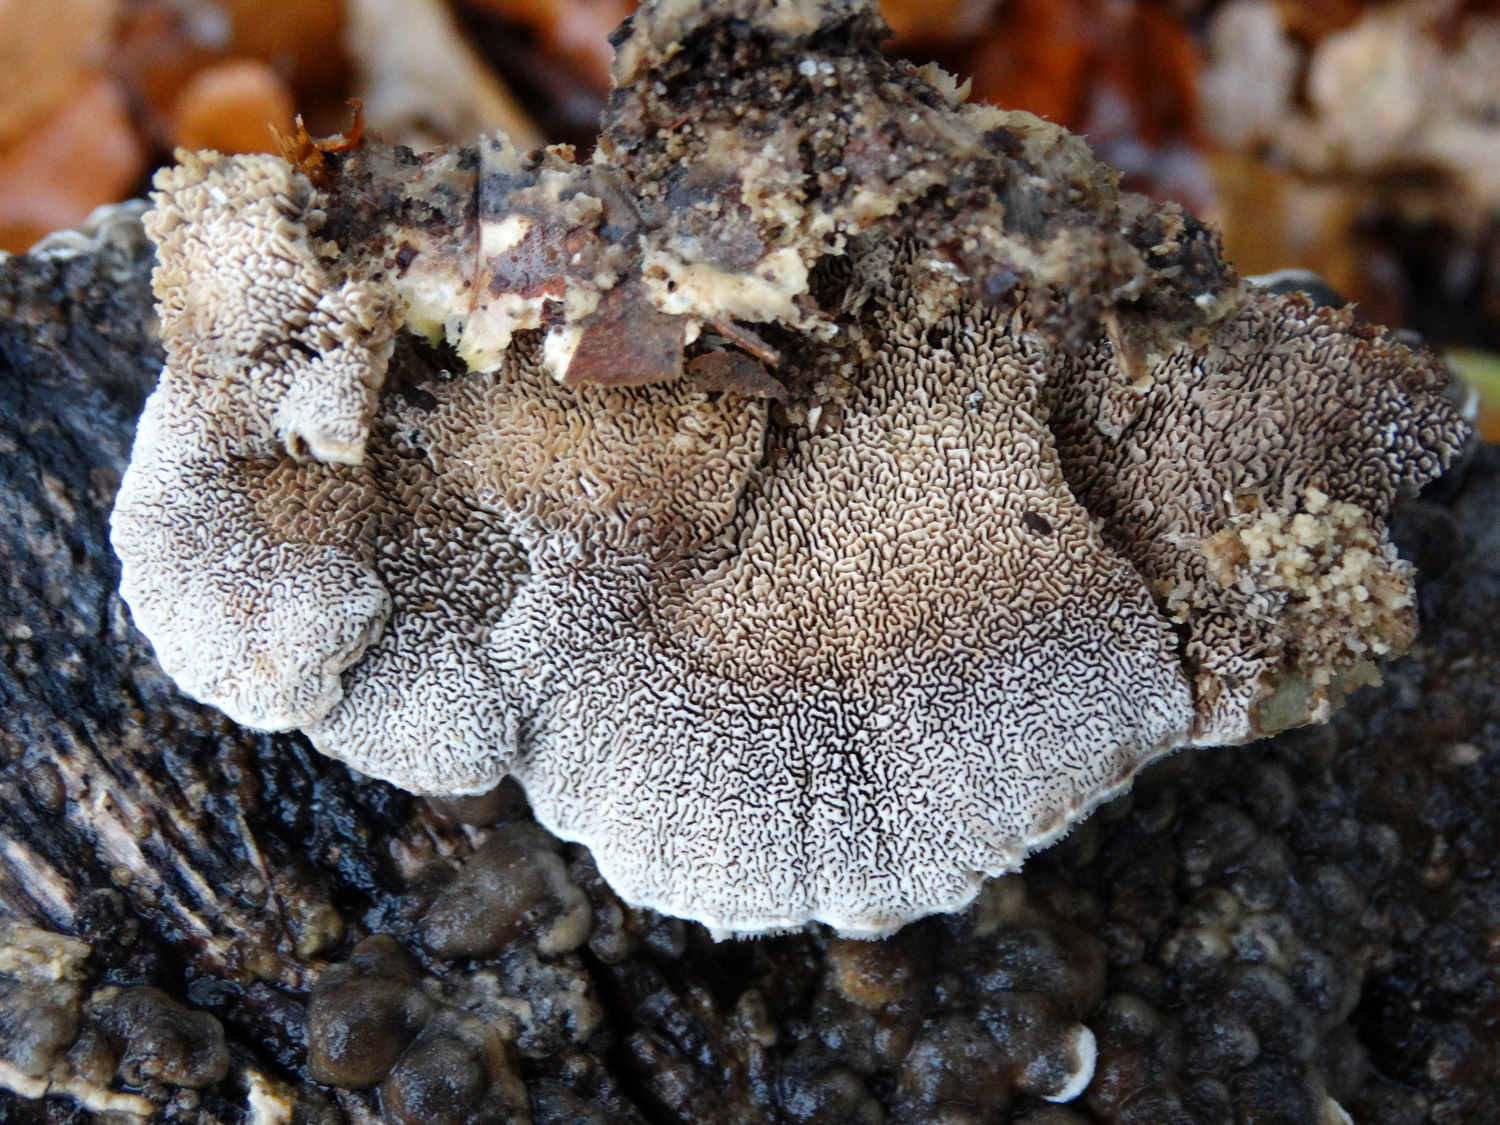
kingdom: Fungi
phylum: Basidiomycota
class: Agaricomycetes
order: Polyporales
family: Cerrenaceae
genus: Cerrena
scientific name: Cerrena unicolor
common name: ensfarvet læderporesvamp
